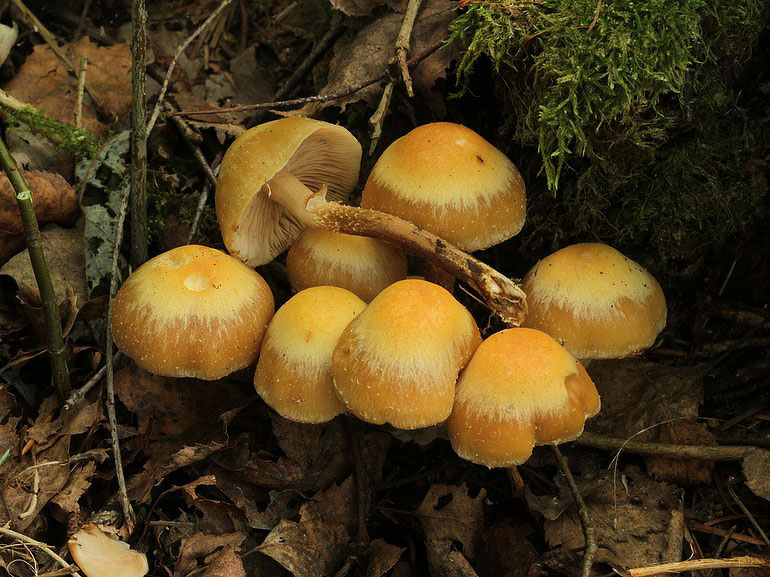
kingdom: Fungi
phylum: Basidiomycota
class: Agaricomycetes
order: Agaricales
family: Strophariaceae
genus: Kuehneromyces
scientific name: Kuehneromyces mutabilis
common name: foranderlig skælhat
